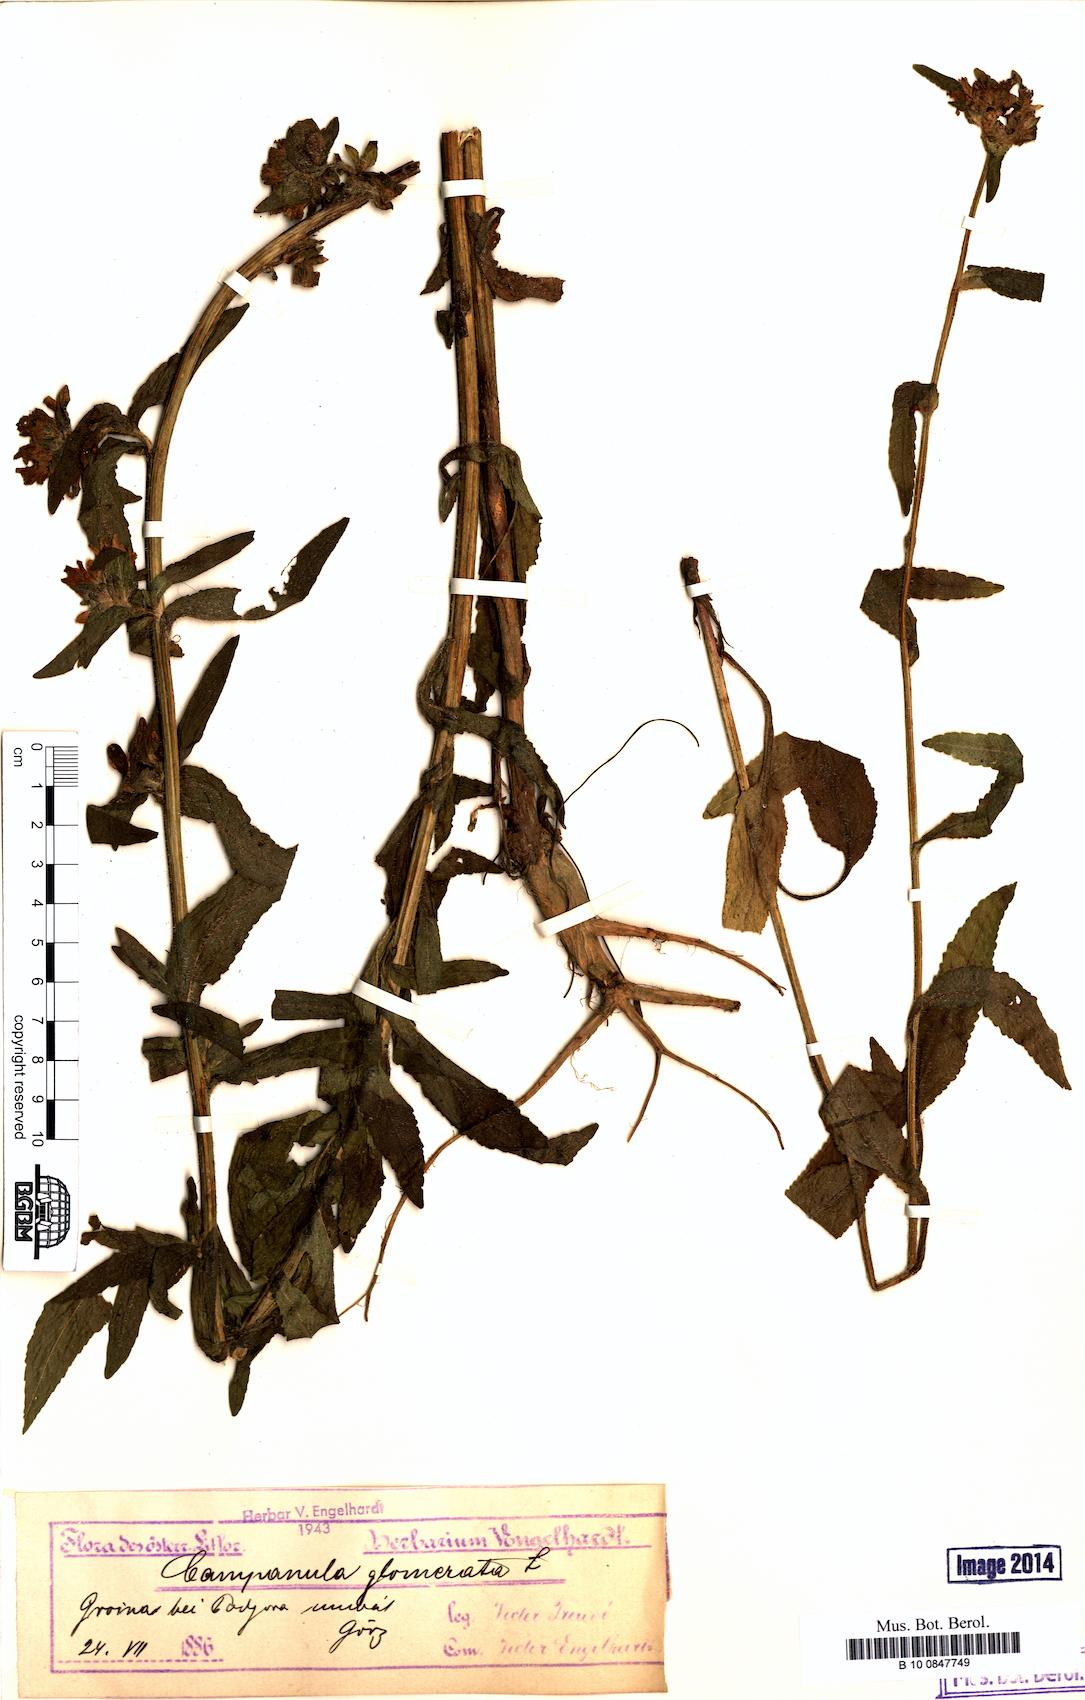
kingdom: Plantae
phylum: Tracheophyta
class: Magnoliopsida
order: Asterales
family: Campanulaceae
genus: Campanula
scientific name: Campanula glomerata
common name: Clustered bellflower
